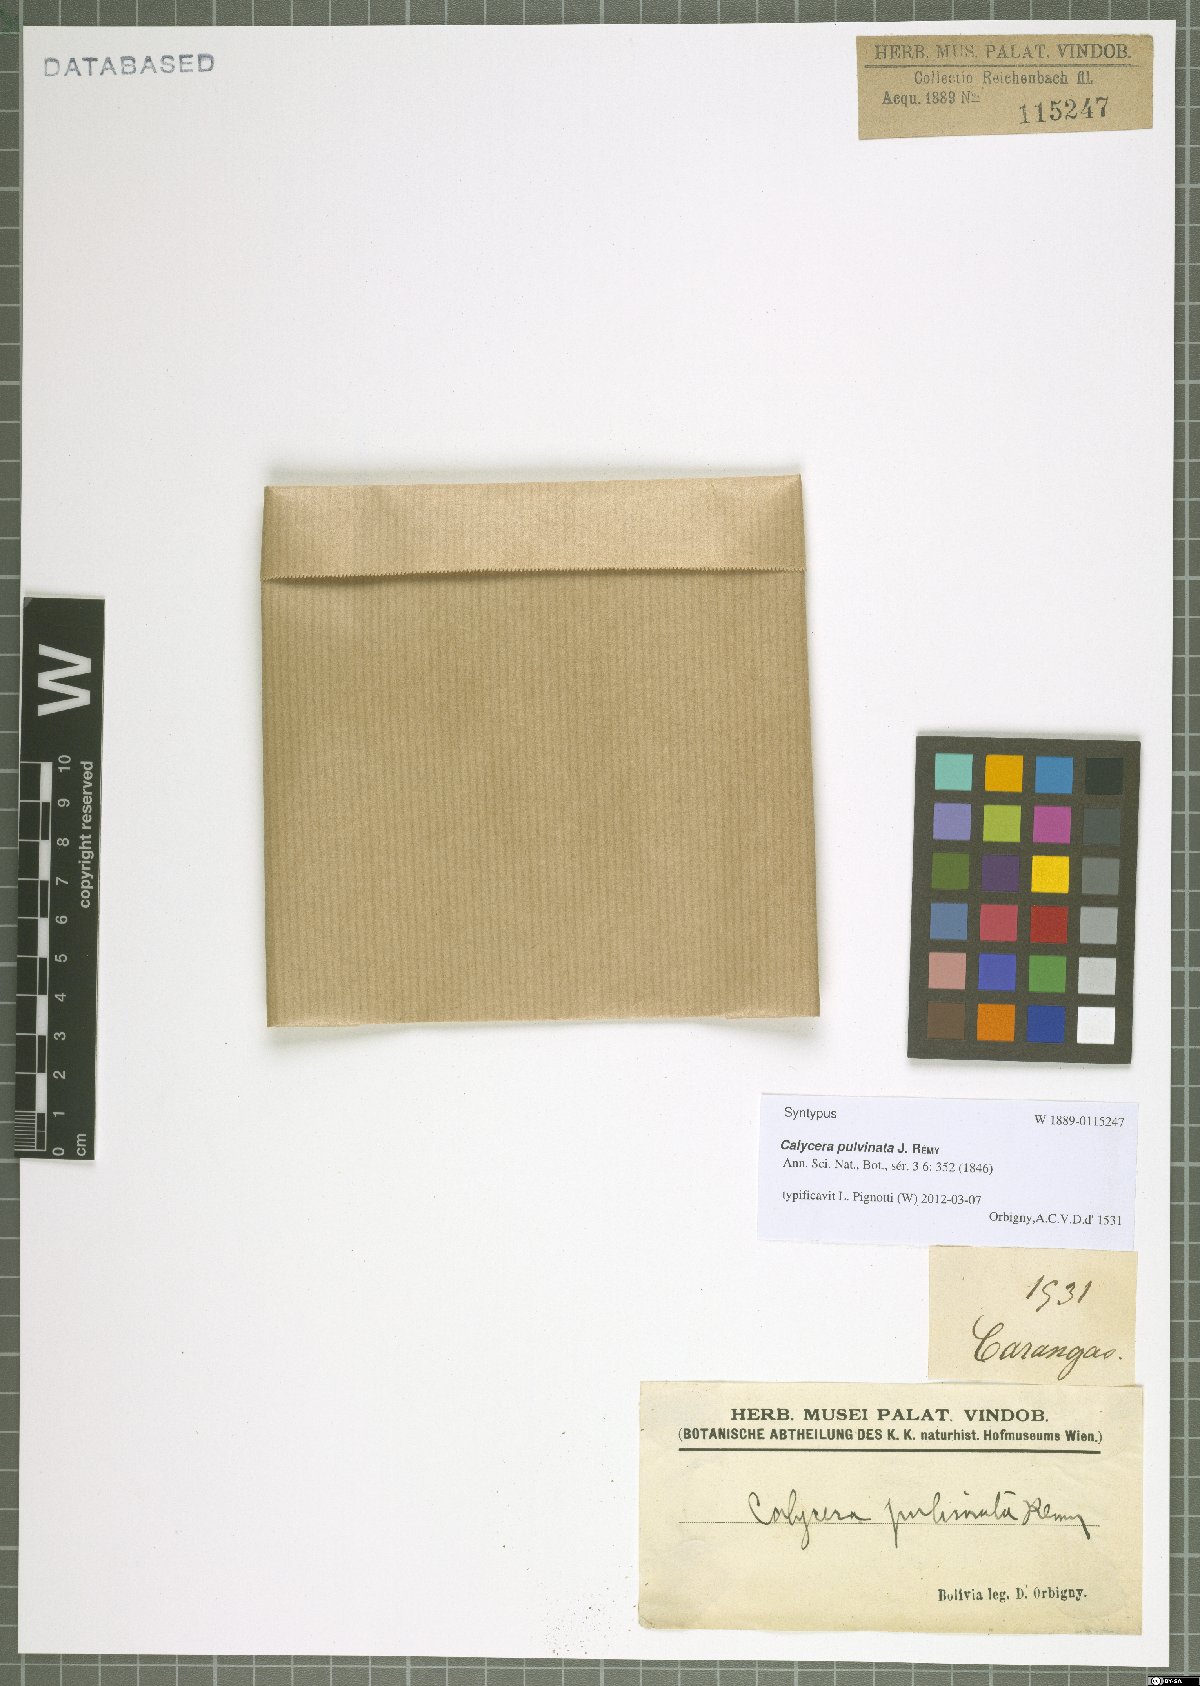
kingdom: Plantae
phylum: Tracheophyta
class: Magnoliopsida
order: Asterales
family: Calyceraceae
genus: Calycera
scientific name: Calycera pulvinata
